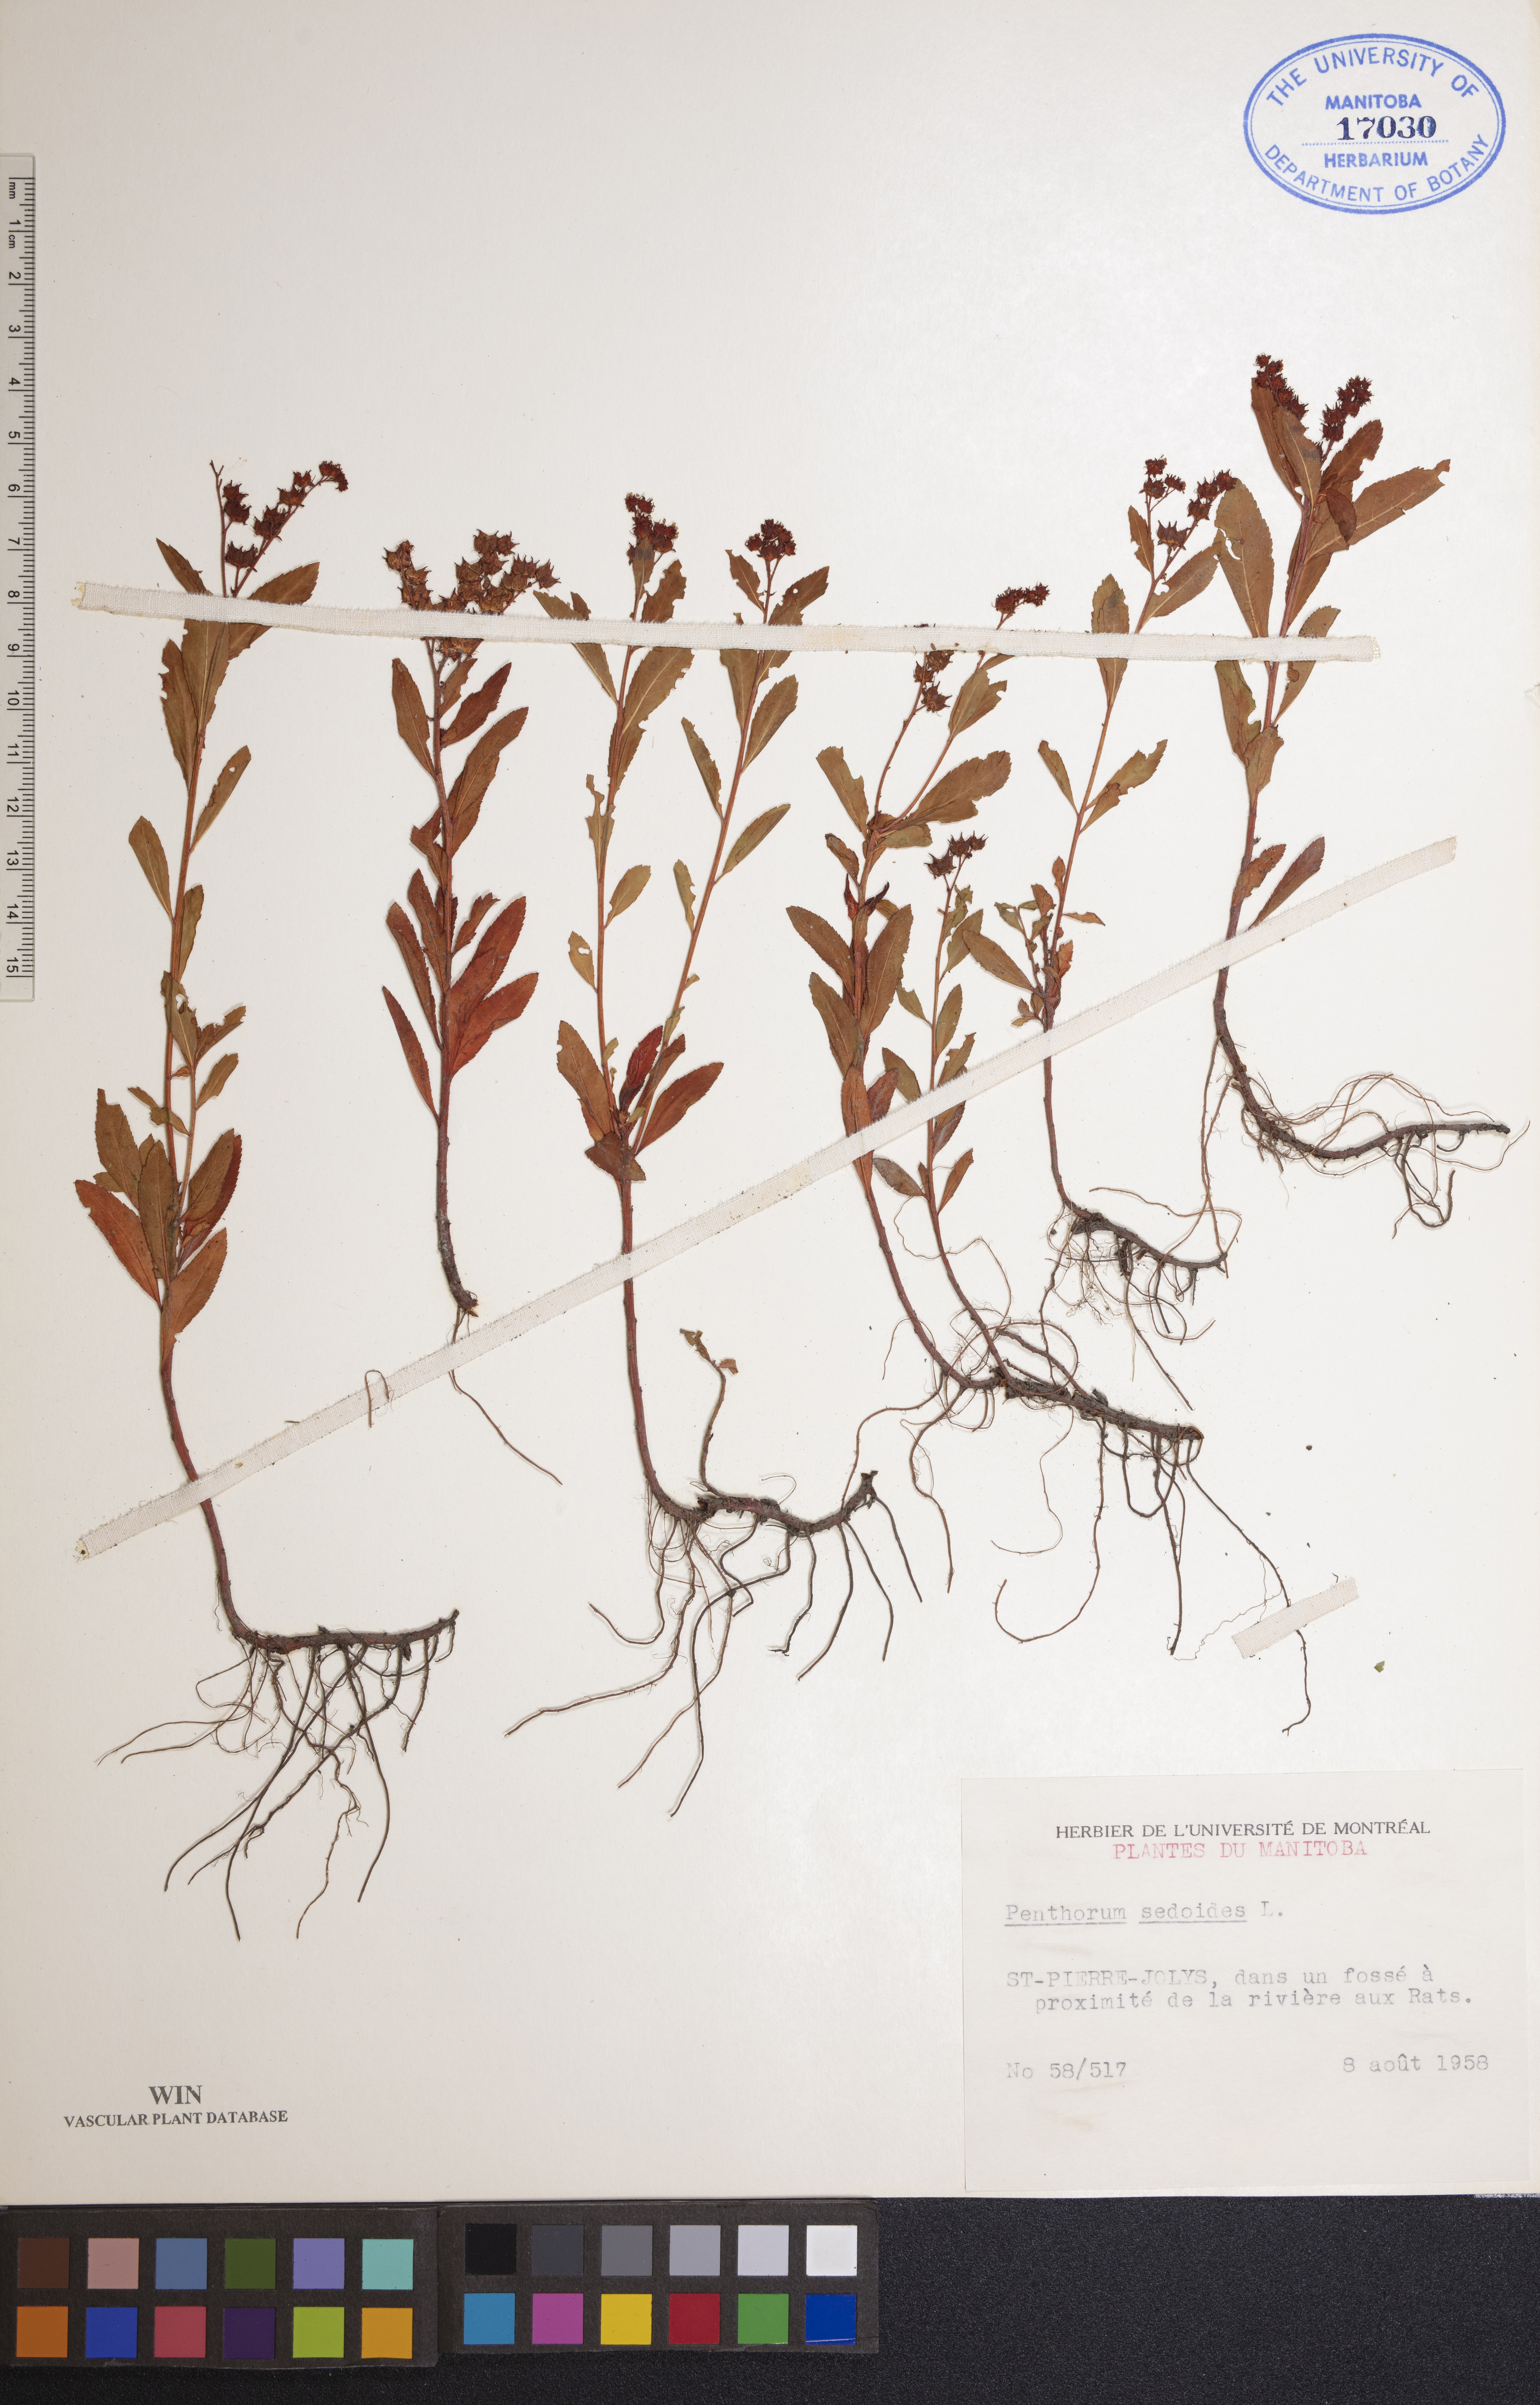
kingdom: Plantae
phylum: Tracheophyta
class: Magnoliopsida
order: Saxifragales
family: Penthoraceae
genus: Penthorum
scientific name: Penthorum sedoides
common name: Ditch stonecrop
